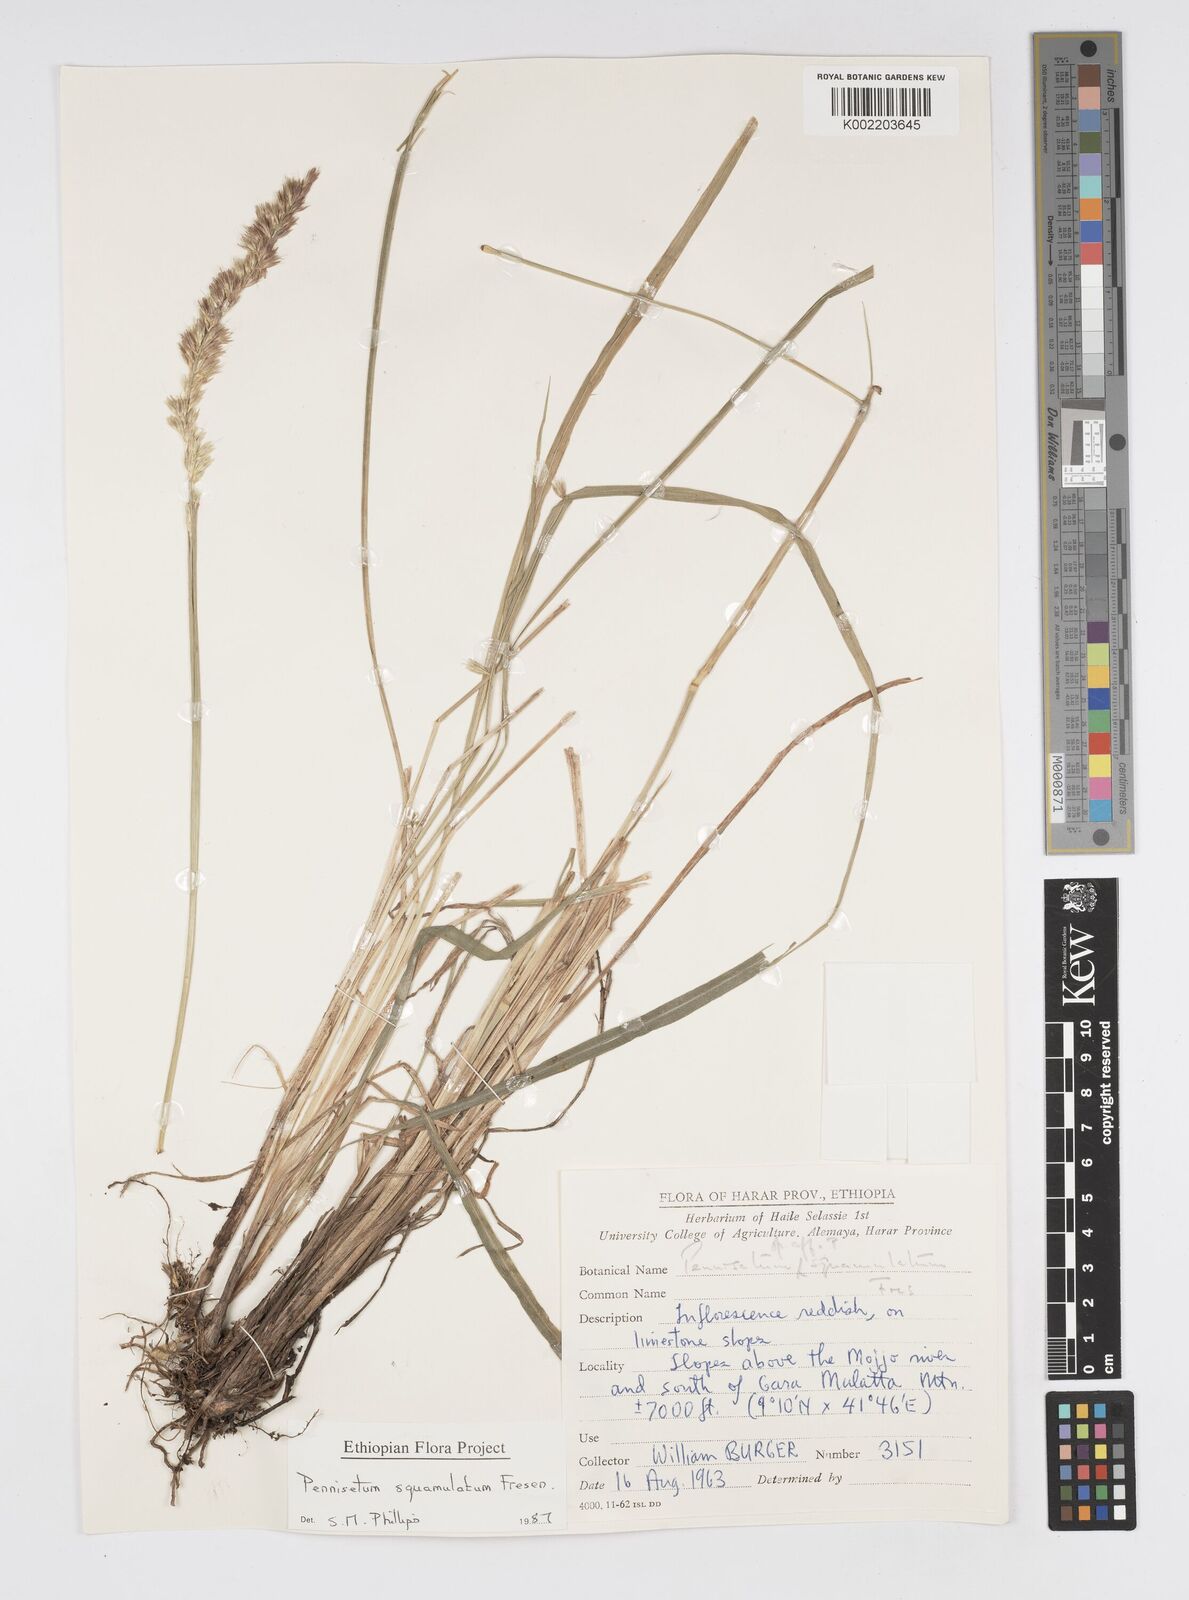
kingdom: Plantae
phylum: Tracheophyta
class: Liliopsida
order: Poales
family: Poaceae
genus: Cenchrus
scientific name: Cenchrus squamulatus
